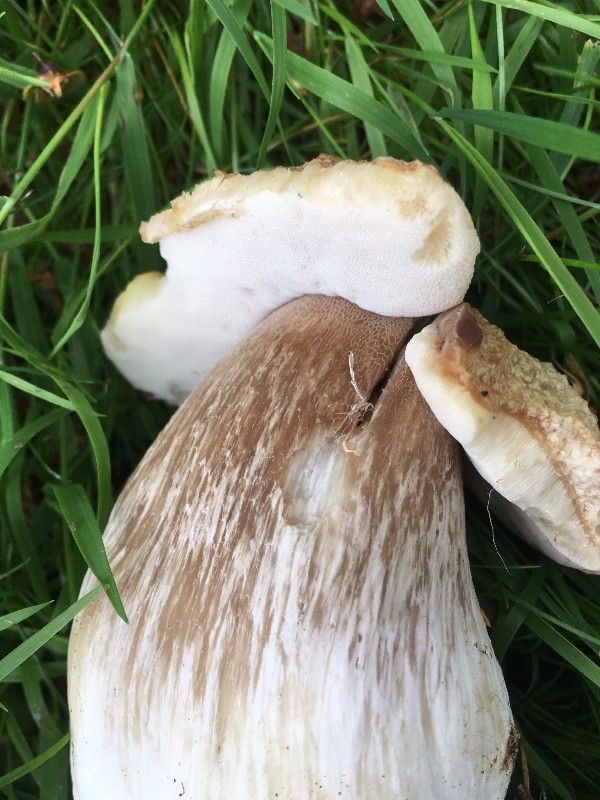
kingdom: Fungi
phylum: Basidiomycota
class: Agaricomycetes
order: Boletales
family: Boletaceae
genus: Boletus
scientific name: Boletus edulis
